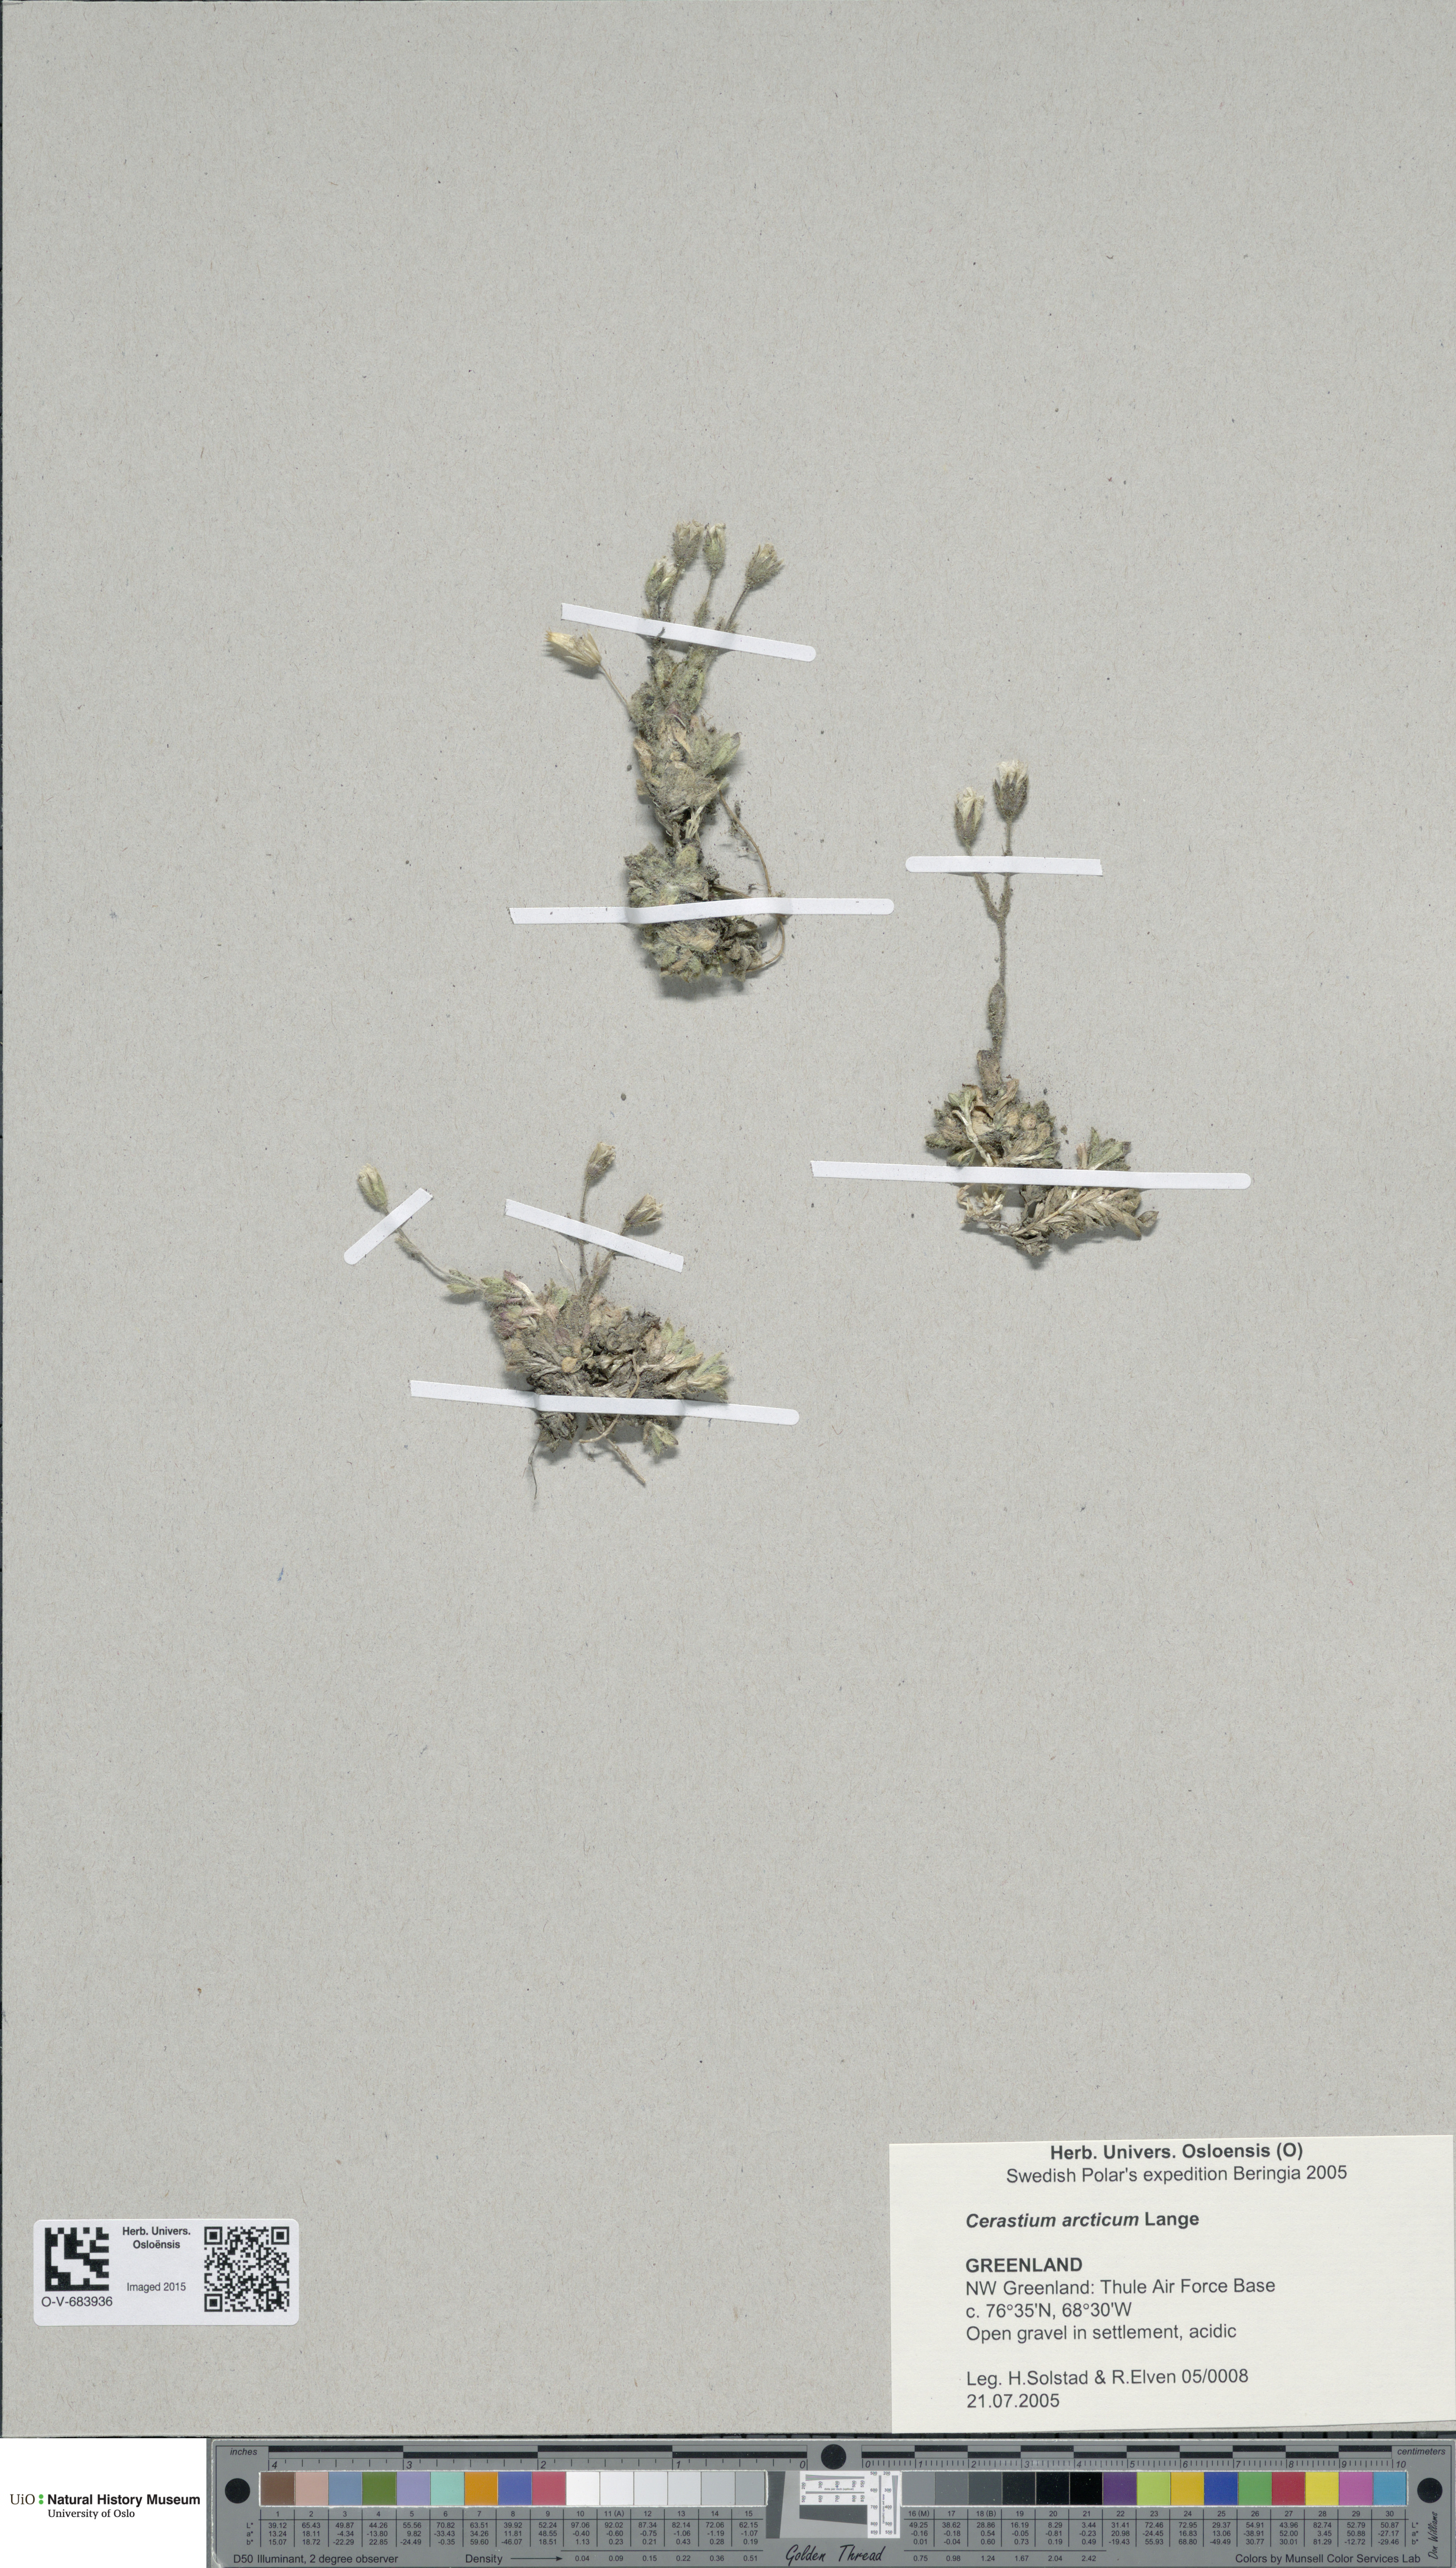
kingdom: Plantae
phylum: Tracheophyta
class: Magnoliopsida
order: Caryophyllales
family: Caryophyllaceae
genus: Cerastium
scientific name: Cerastium arcticum
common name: Arctic mouse-ear
